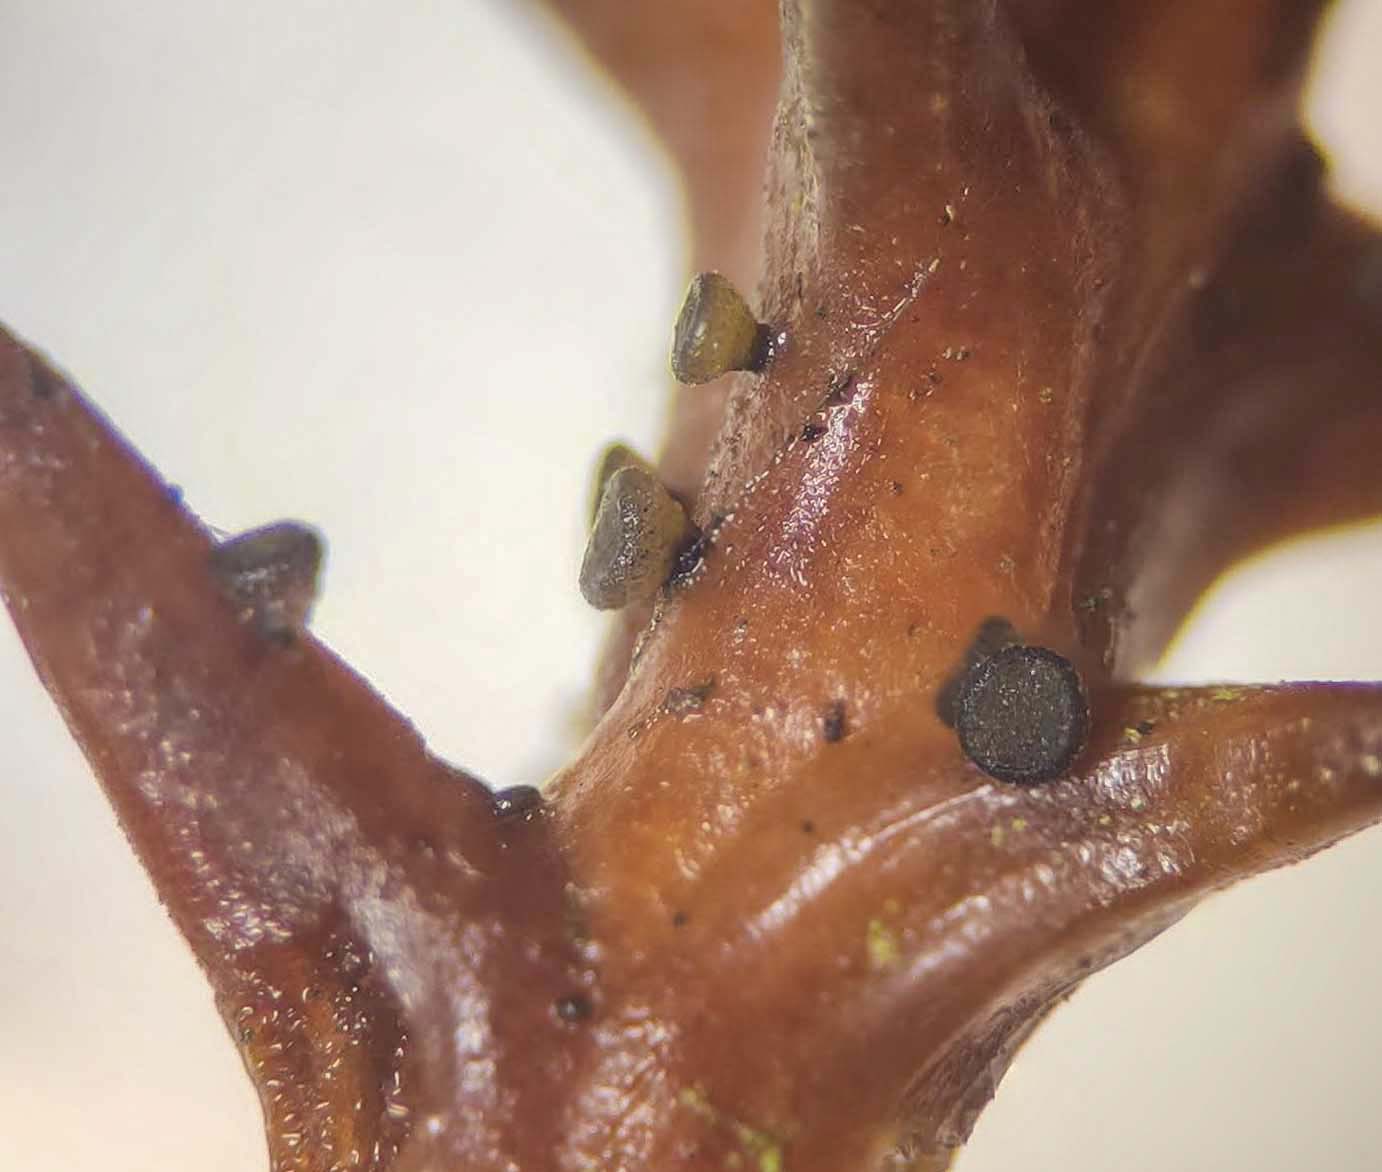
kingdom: Fungi
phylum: Ascomycota
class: Leotiomycetes
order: Helotiales
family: Gelatinodiscaceae
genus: Chloroscypha
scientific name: Chloroscypha seaveri
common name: kortstilket cypresskive
